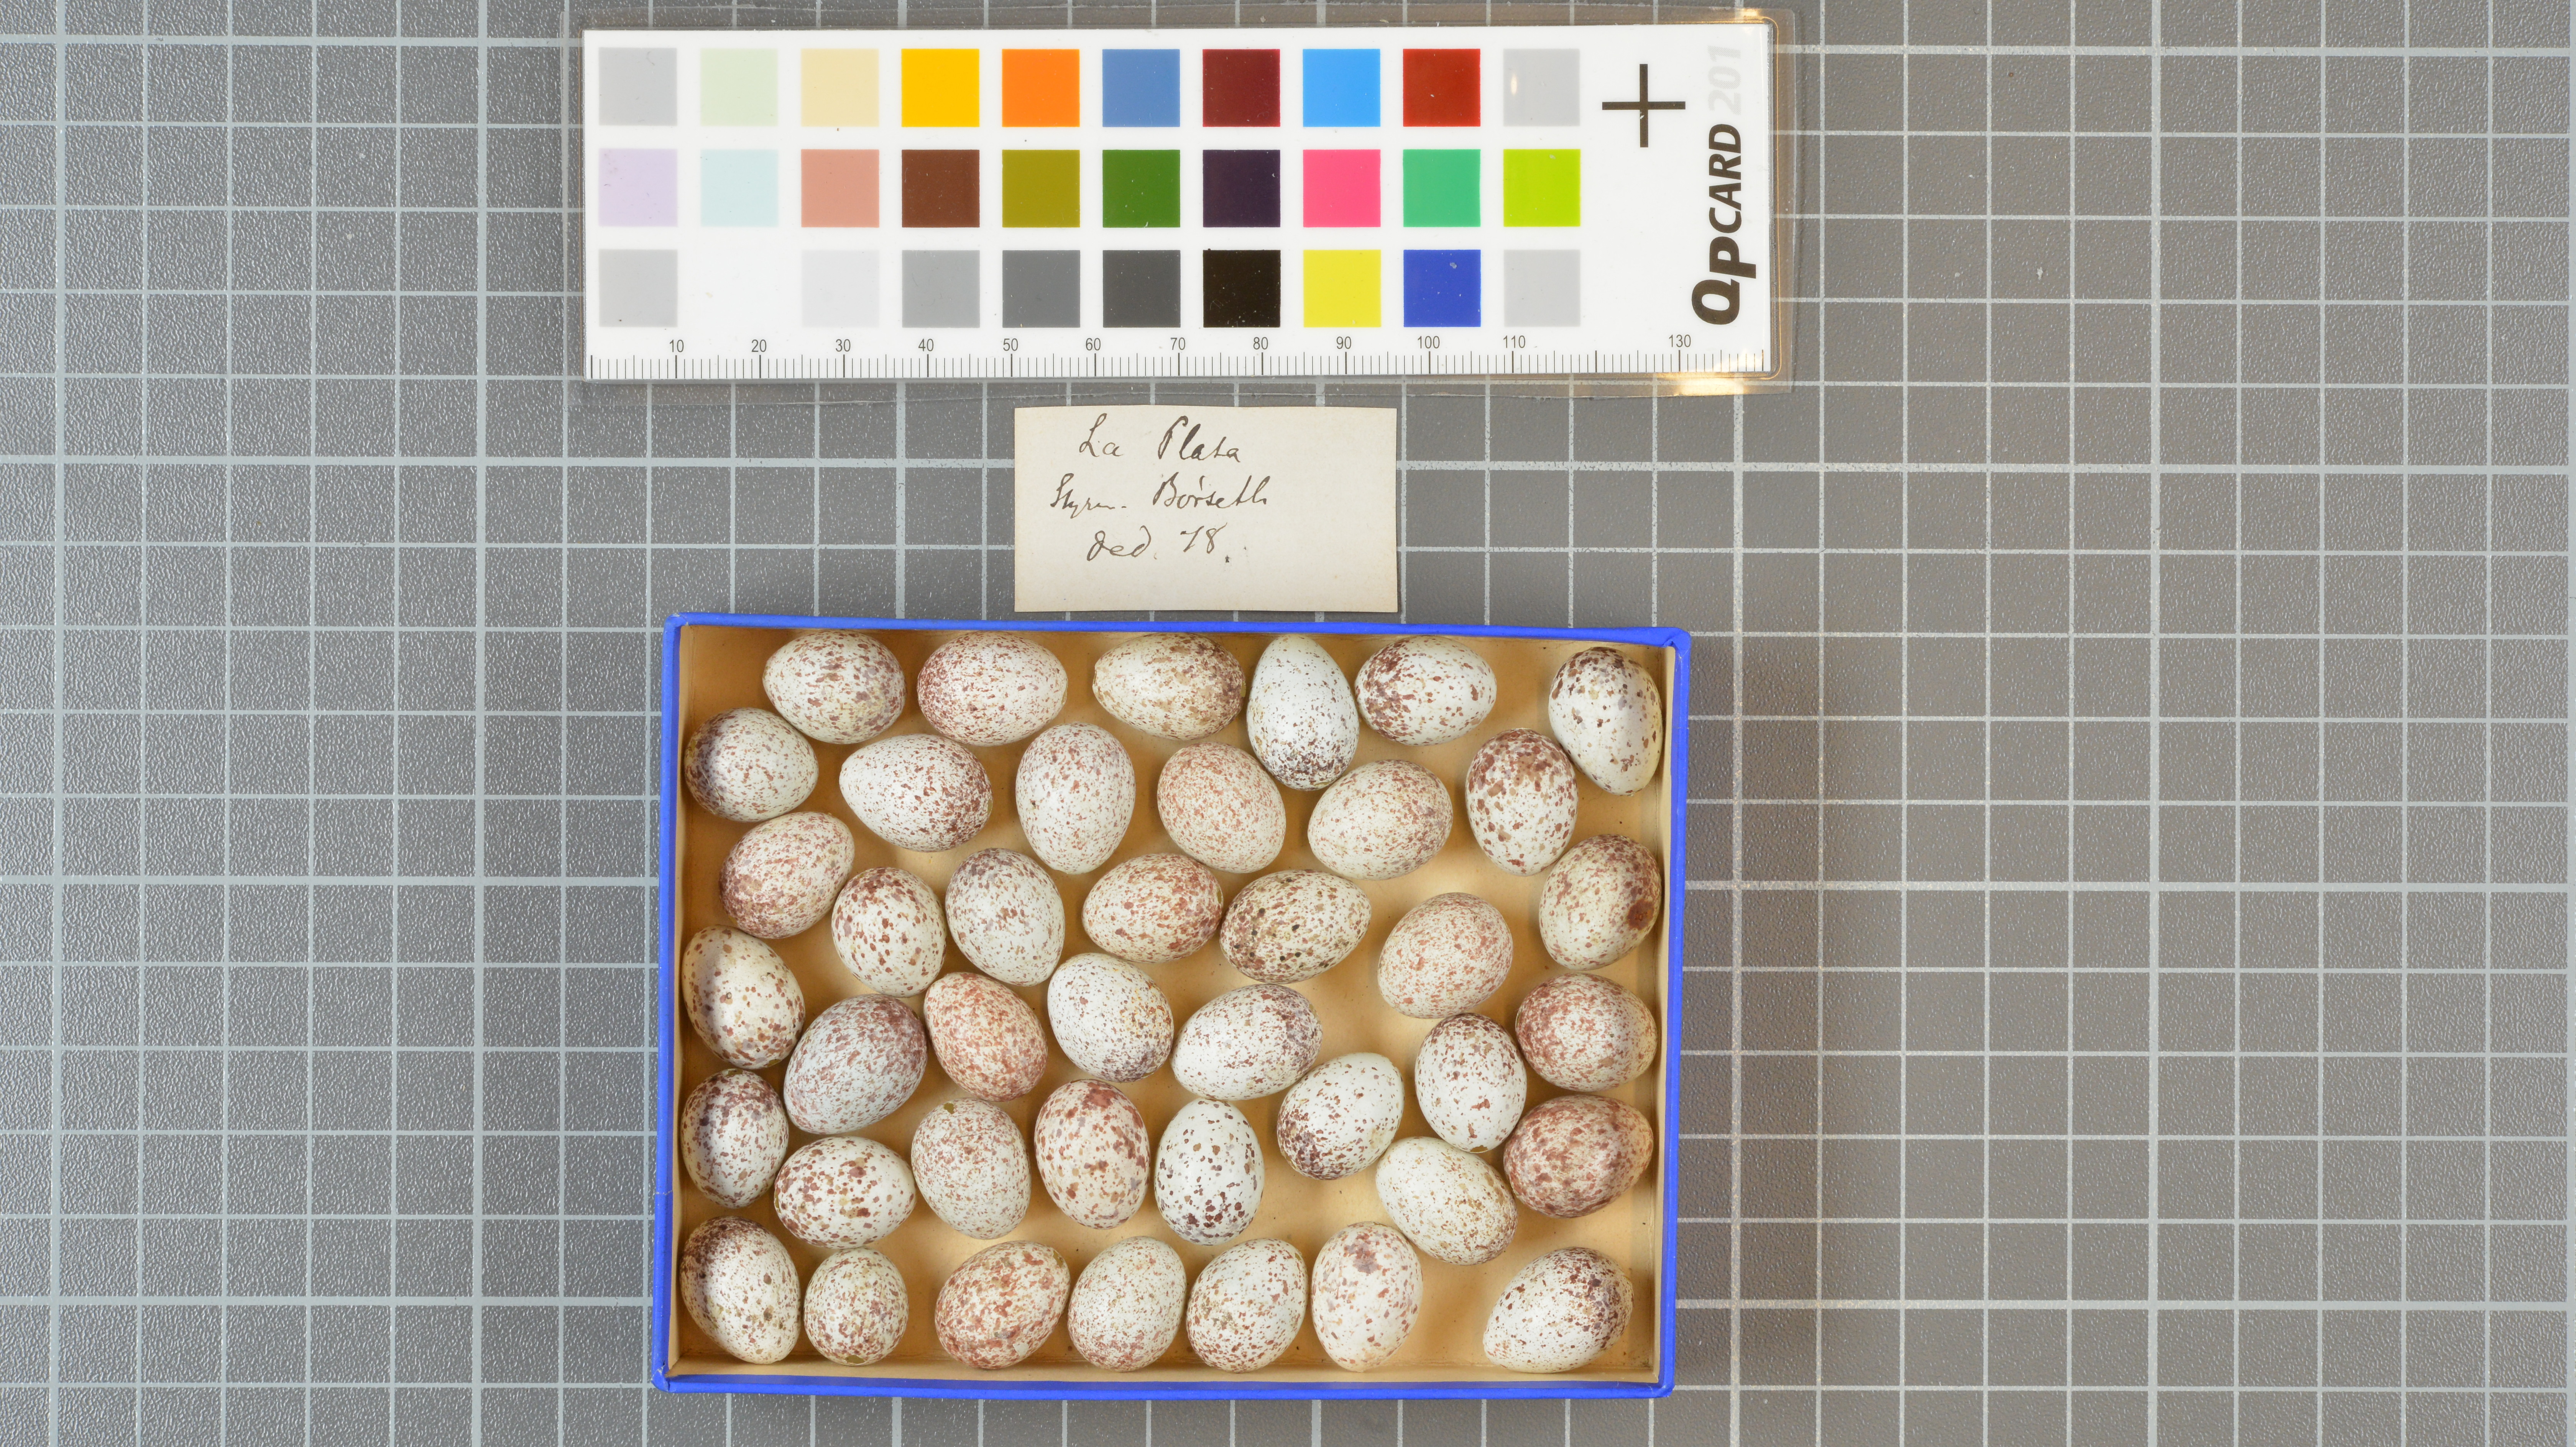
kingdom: Animalia
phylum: Chordata
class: Aves
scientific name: Aves
